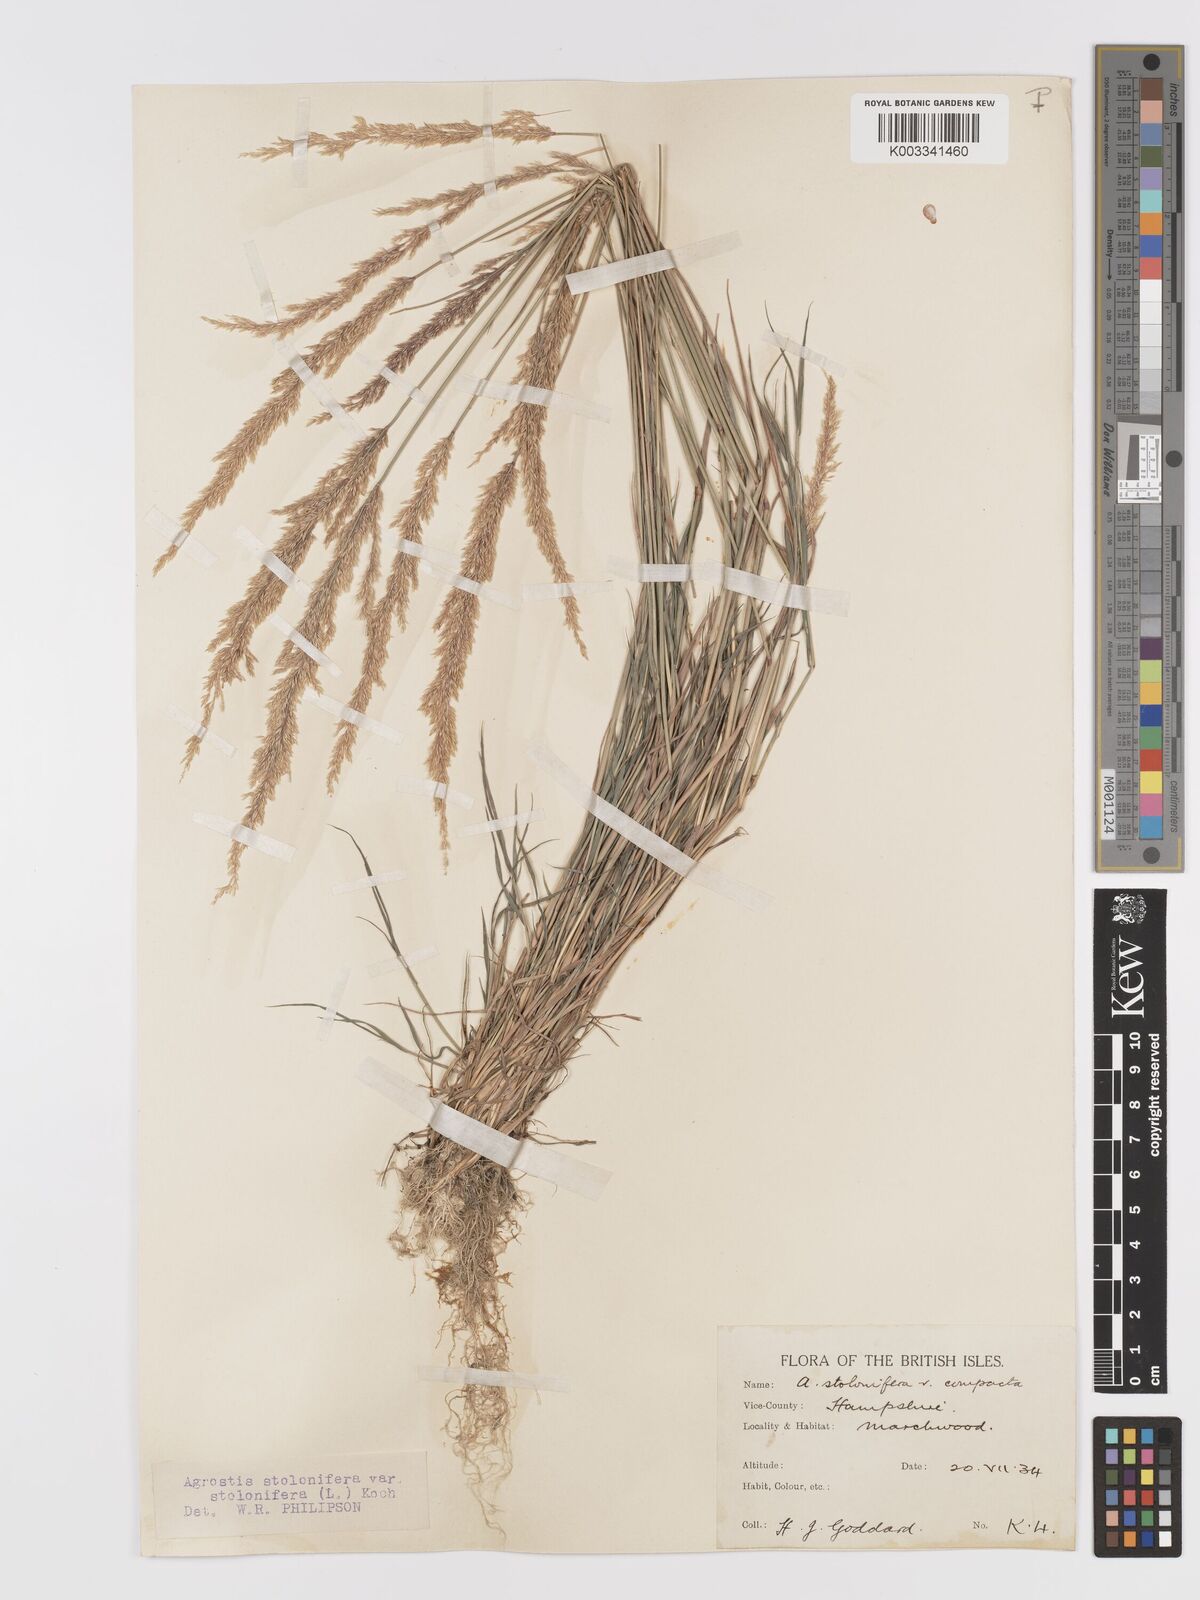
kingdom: Plantae
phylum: Tracheophyta
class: Liliopsida
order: Poales
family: Poaceae
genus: Agrostis
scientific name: Agrostis stolonifera
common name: Creeping bentgrass
